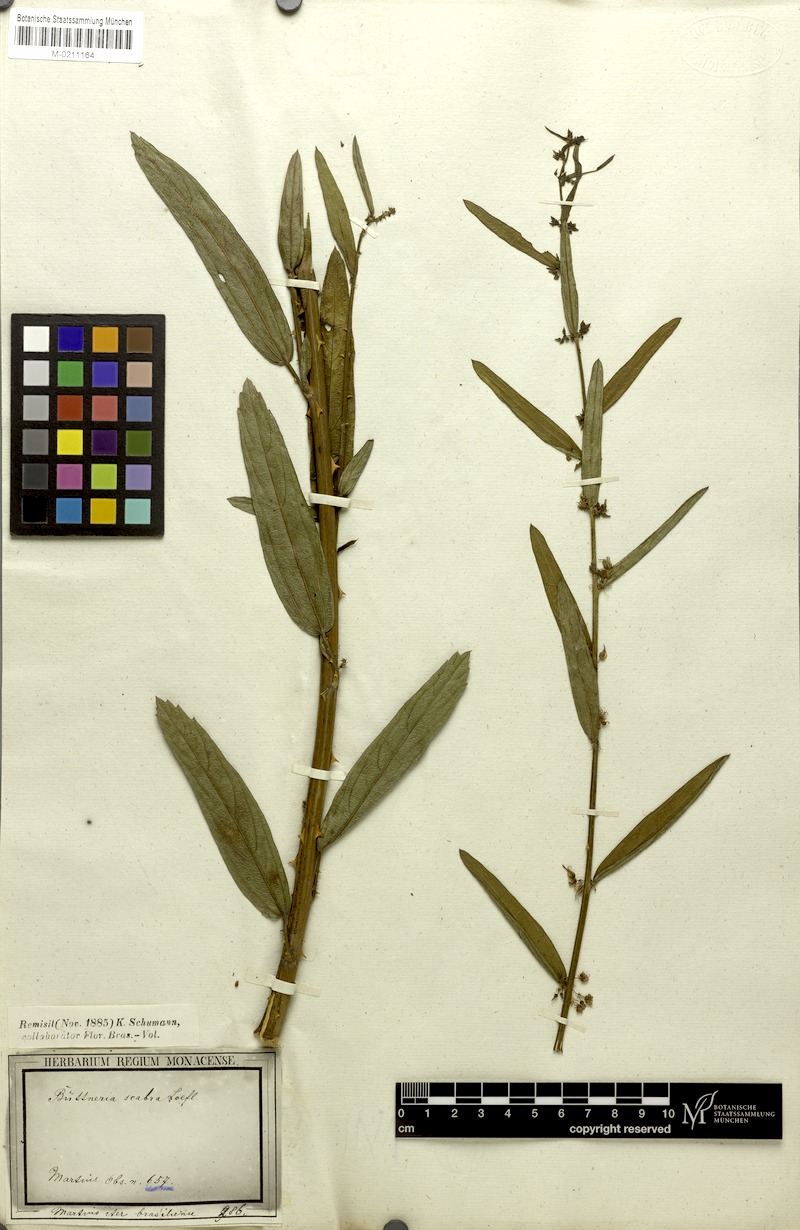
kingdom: Plantae
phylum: Tracheophyta
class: Magnoliopsida
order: Malvales
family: Malvaceae
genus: Byttneria
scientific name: Byttneria scabra
